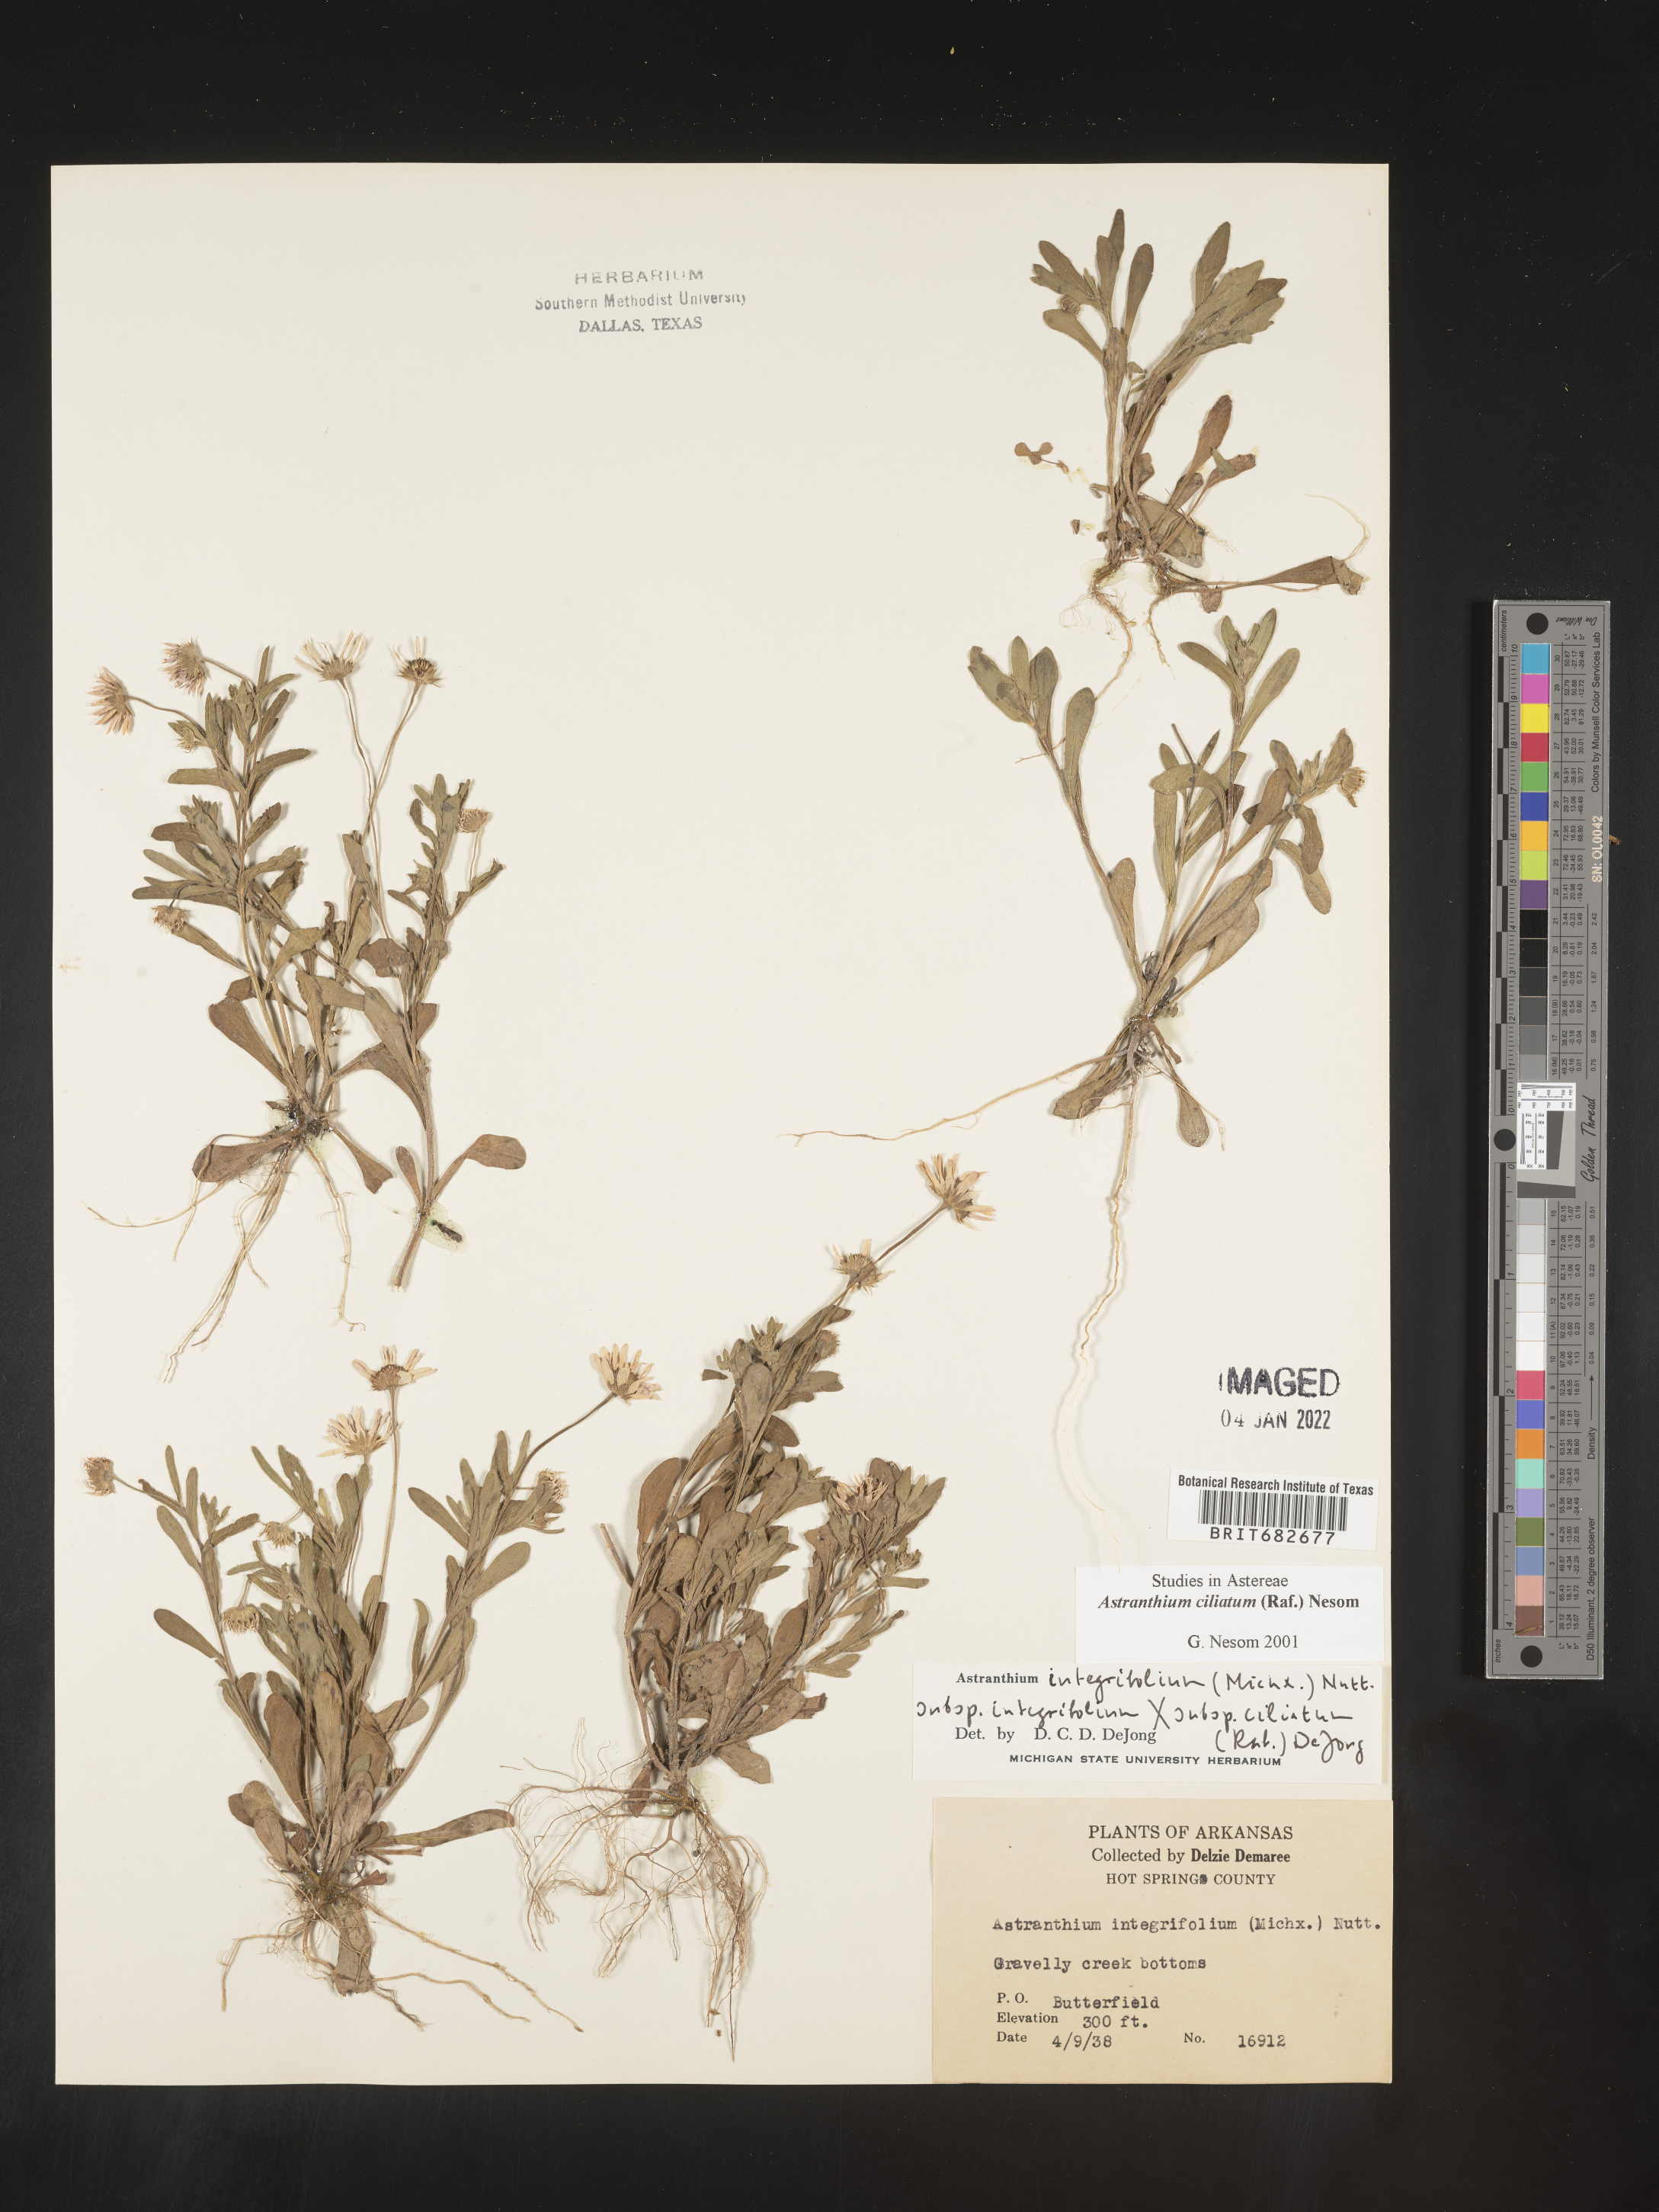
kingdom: Plantae
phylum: Tracheophyta
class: Magnoliopsida
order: Asterales
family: Asteraceae
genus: Astranthium
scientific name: Astranthium ciliatum
